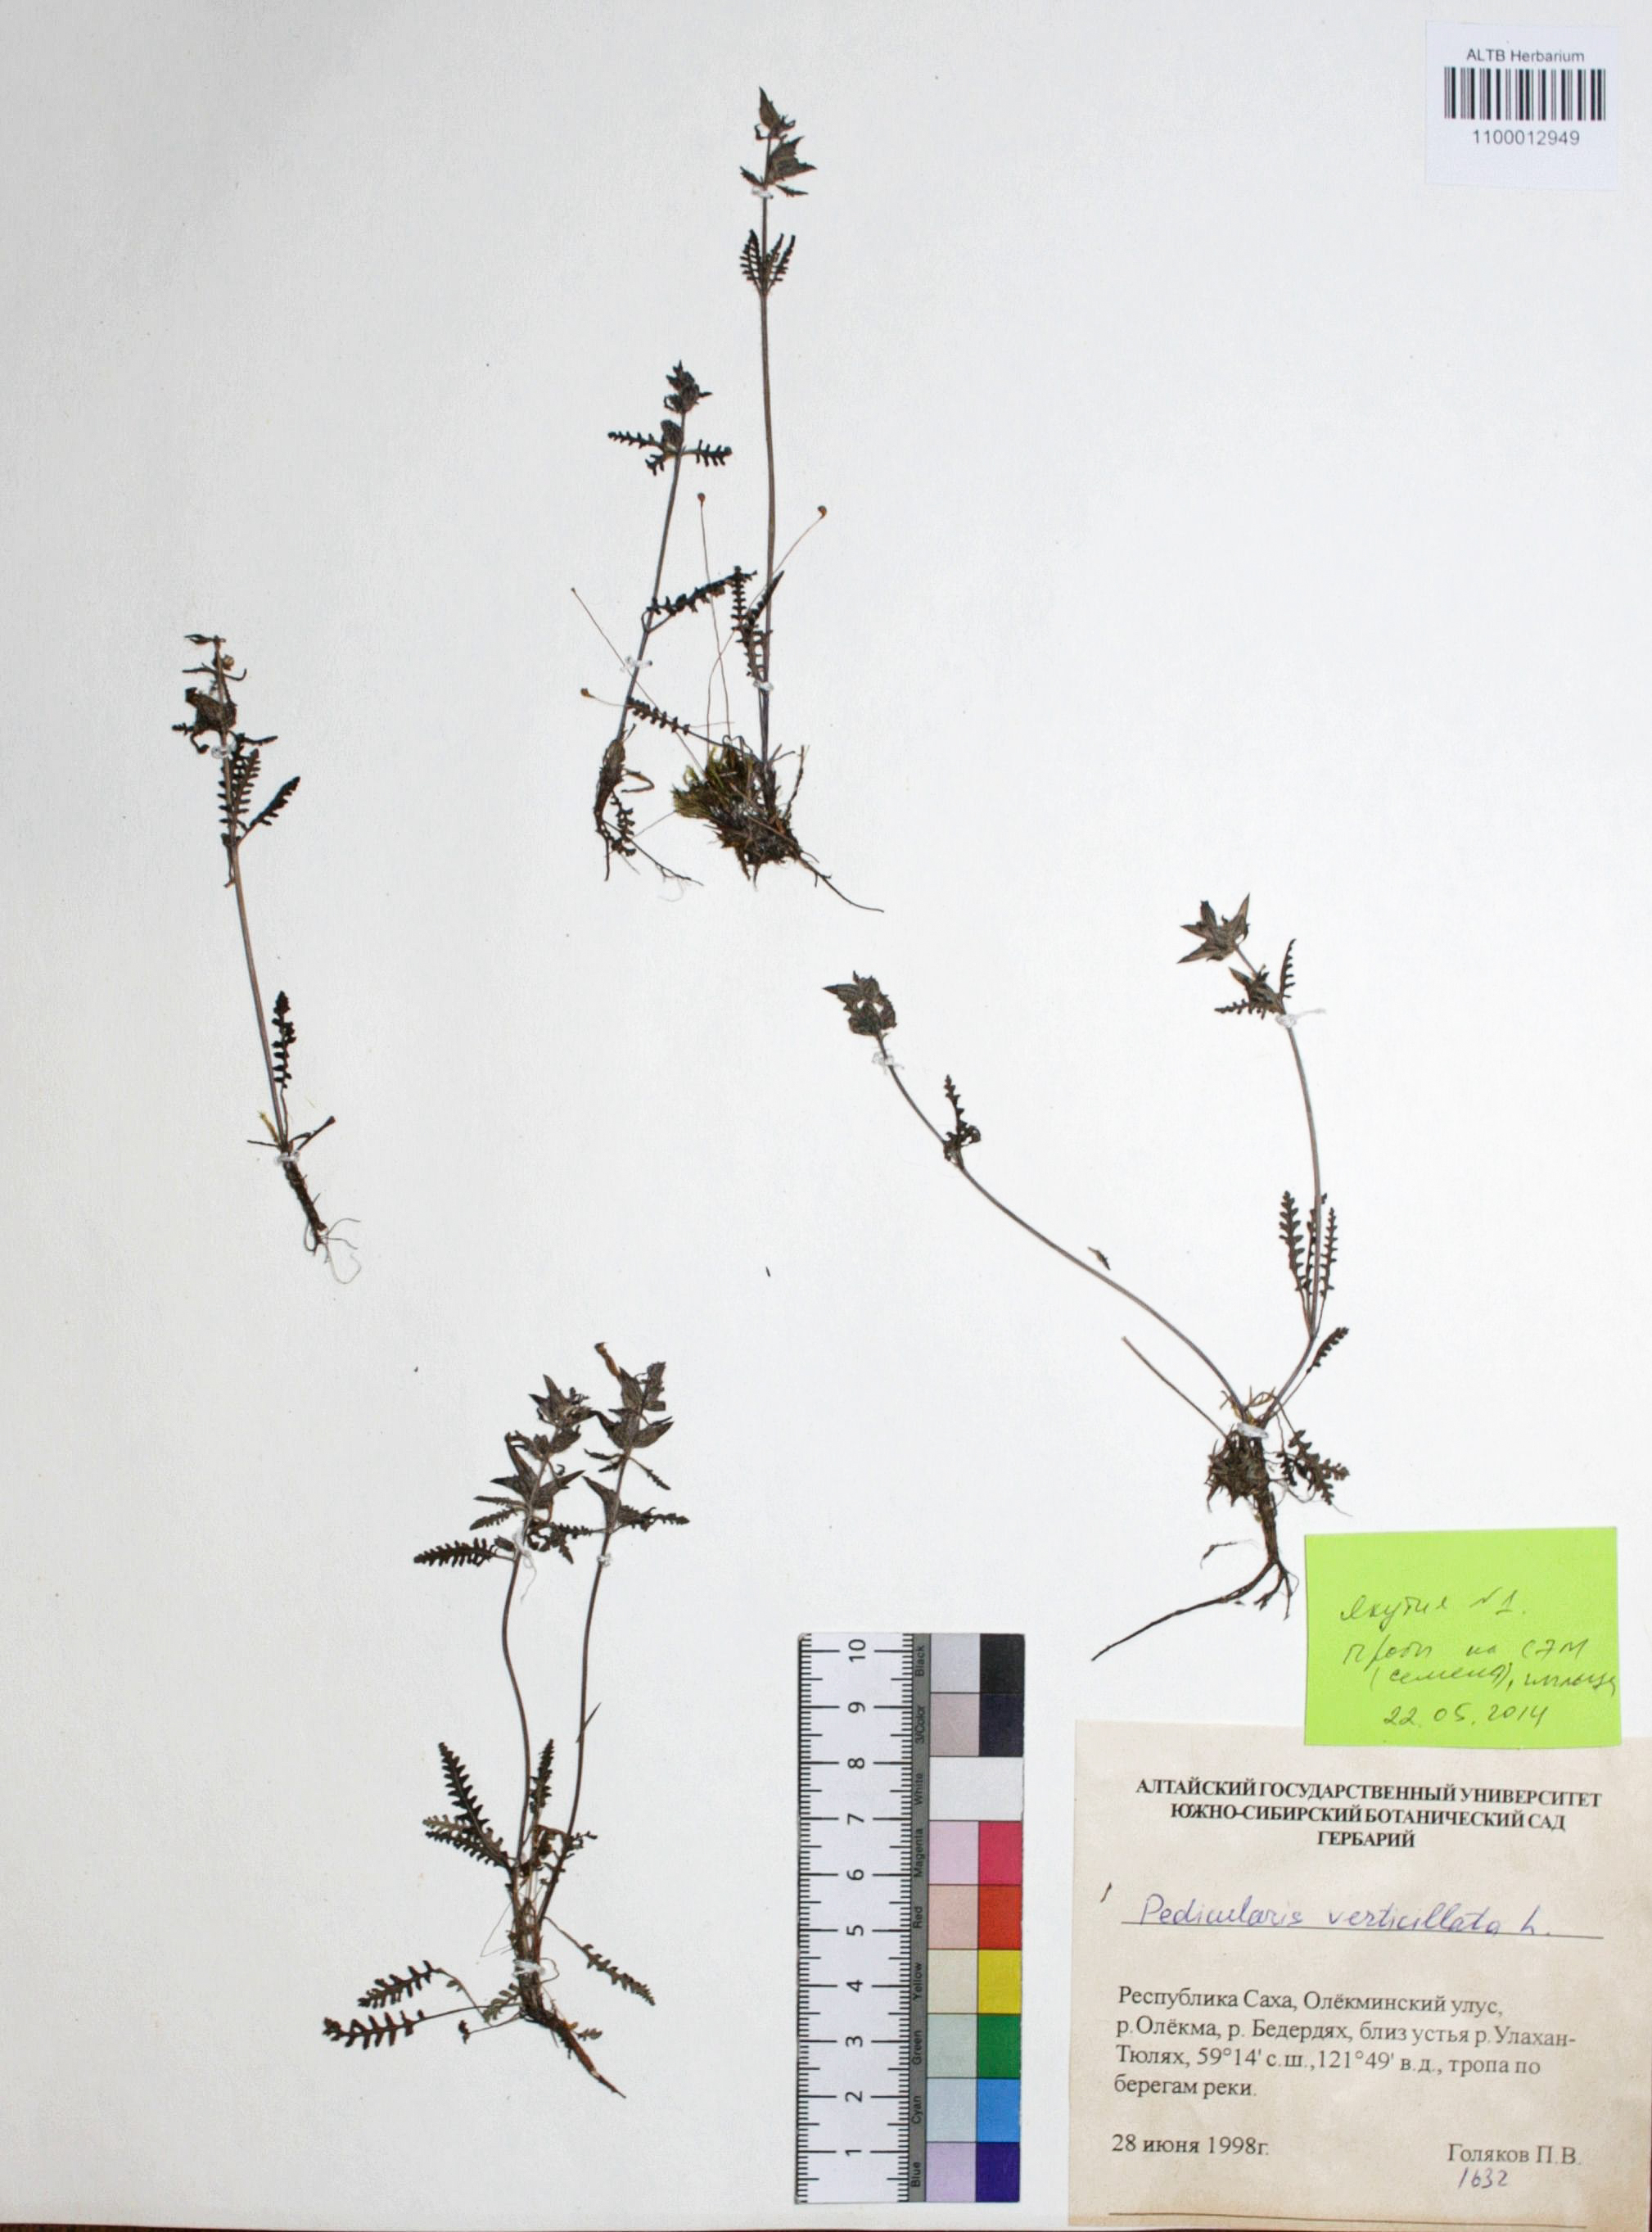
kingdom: Plantae
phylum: Tracheophyta
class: Magnoliopsida
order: Lamiales
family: Orobanchaceae
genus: Pedicularis
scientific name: Pedicularis verticillata
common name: Whorled lousewort
